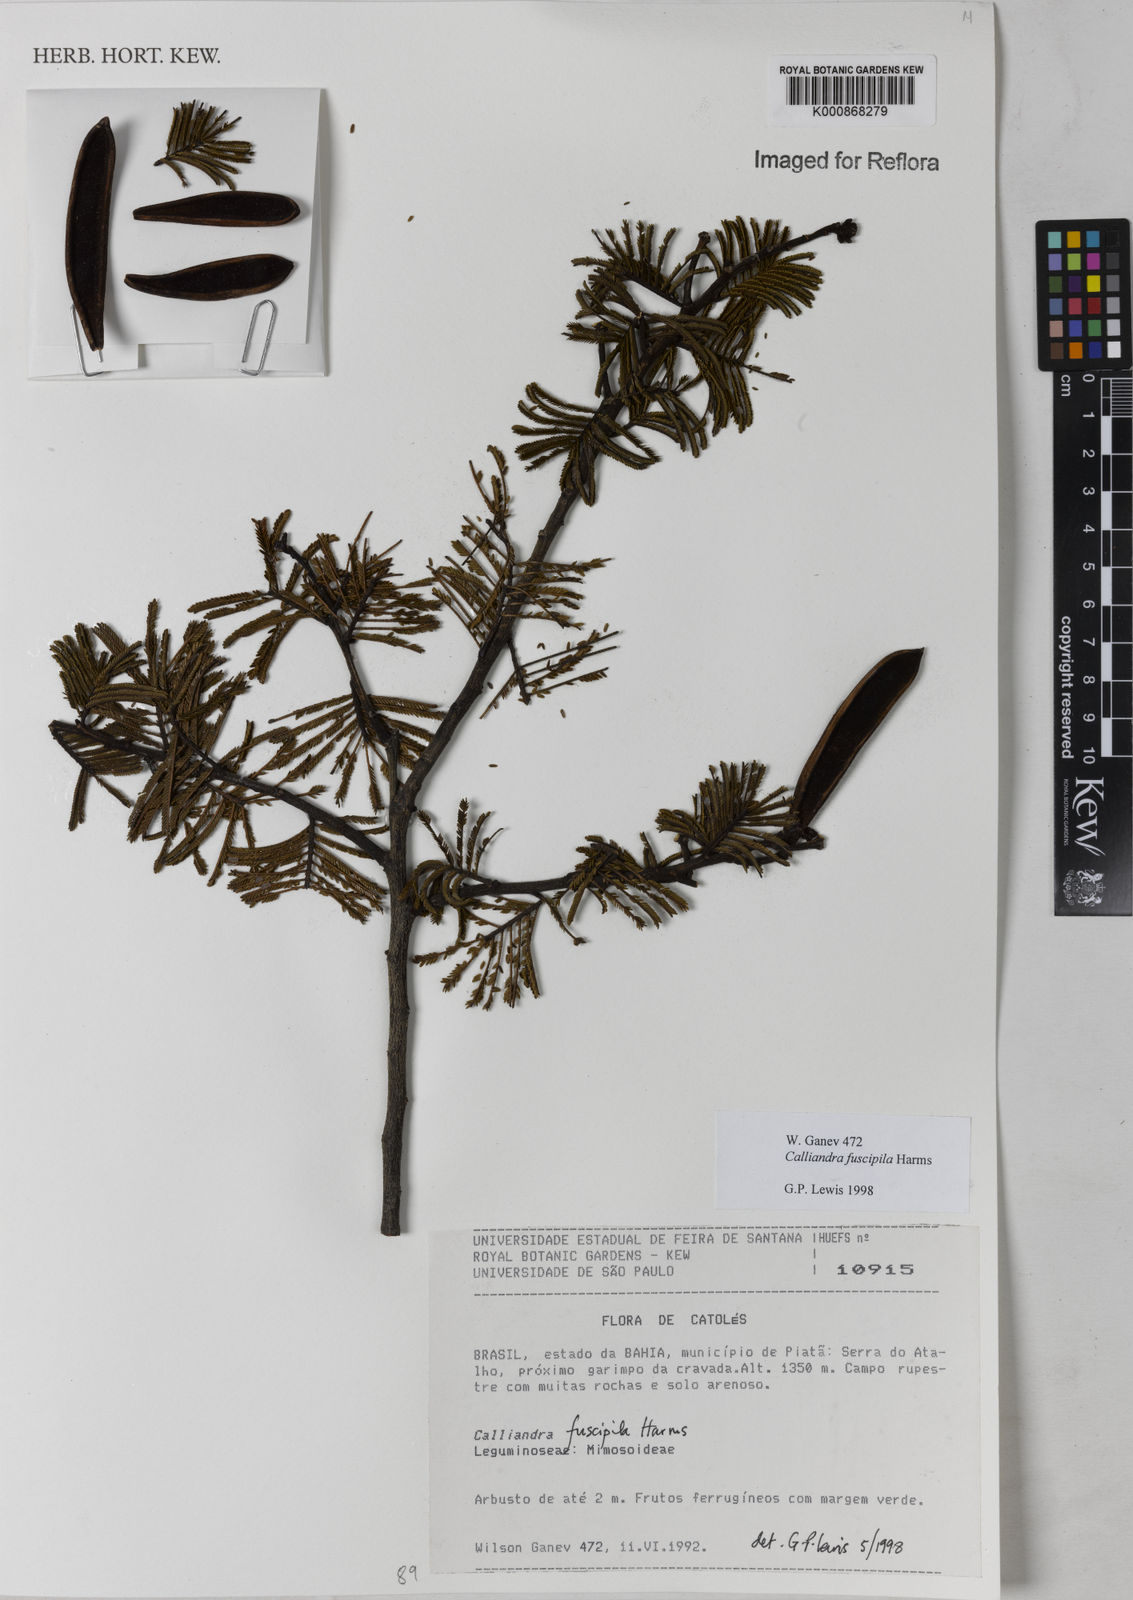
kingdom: Plantae
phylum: Tracheophyta
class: Magnoliopsida
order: Fabales
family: Fabaceae
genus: Calliandra
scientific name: Calliandra fuscipila
